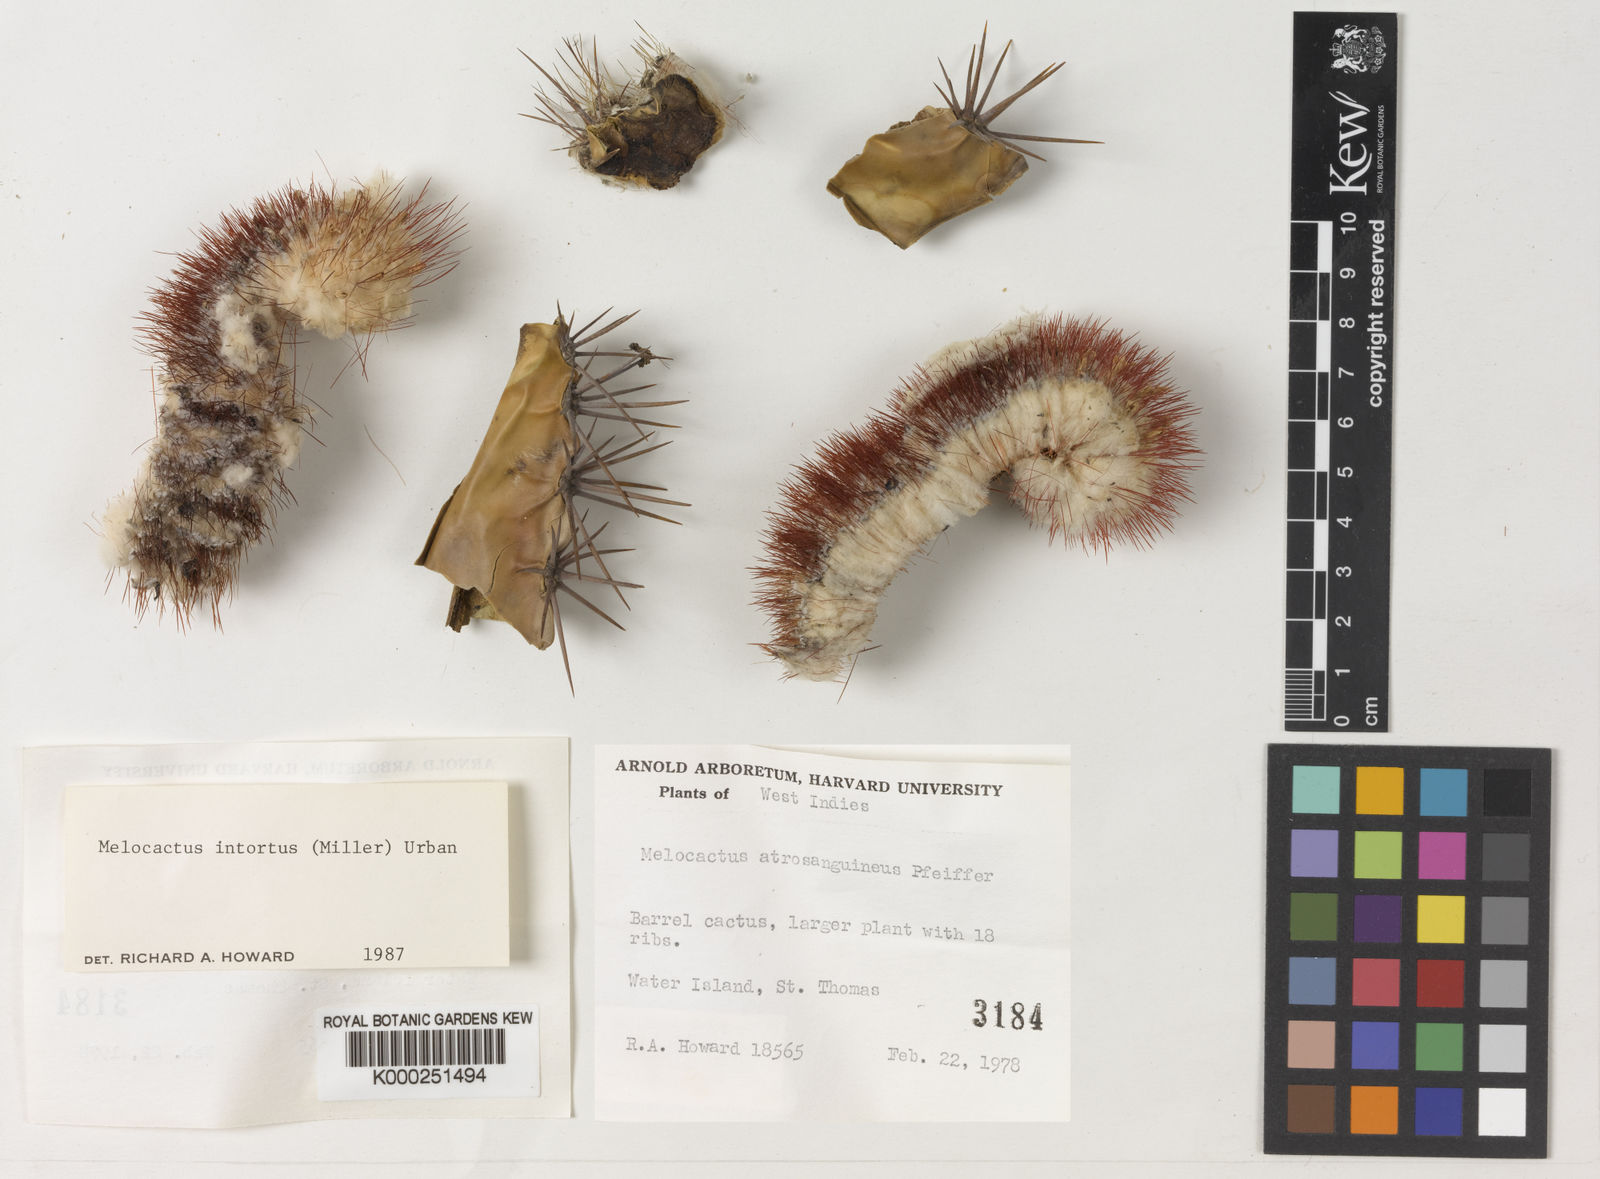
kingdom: Plantae
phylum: Tracheophyta
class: Magnoliopsida
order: Caryophyllales
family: Cactaceae
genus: Melocactus
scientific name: Melocactus
